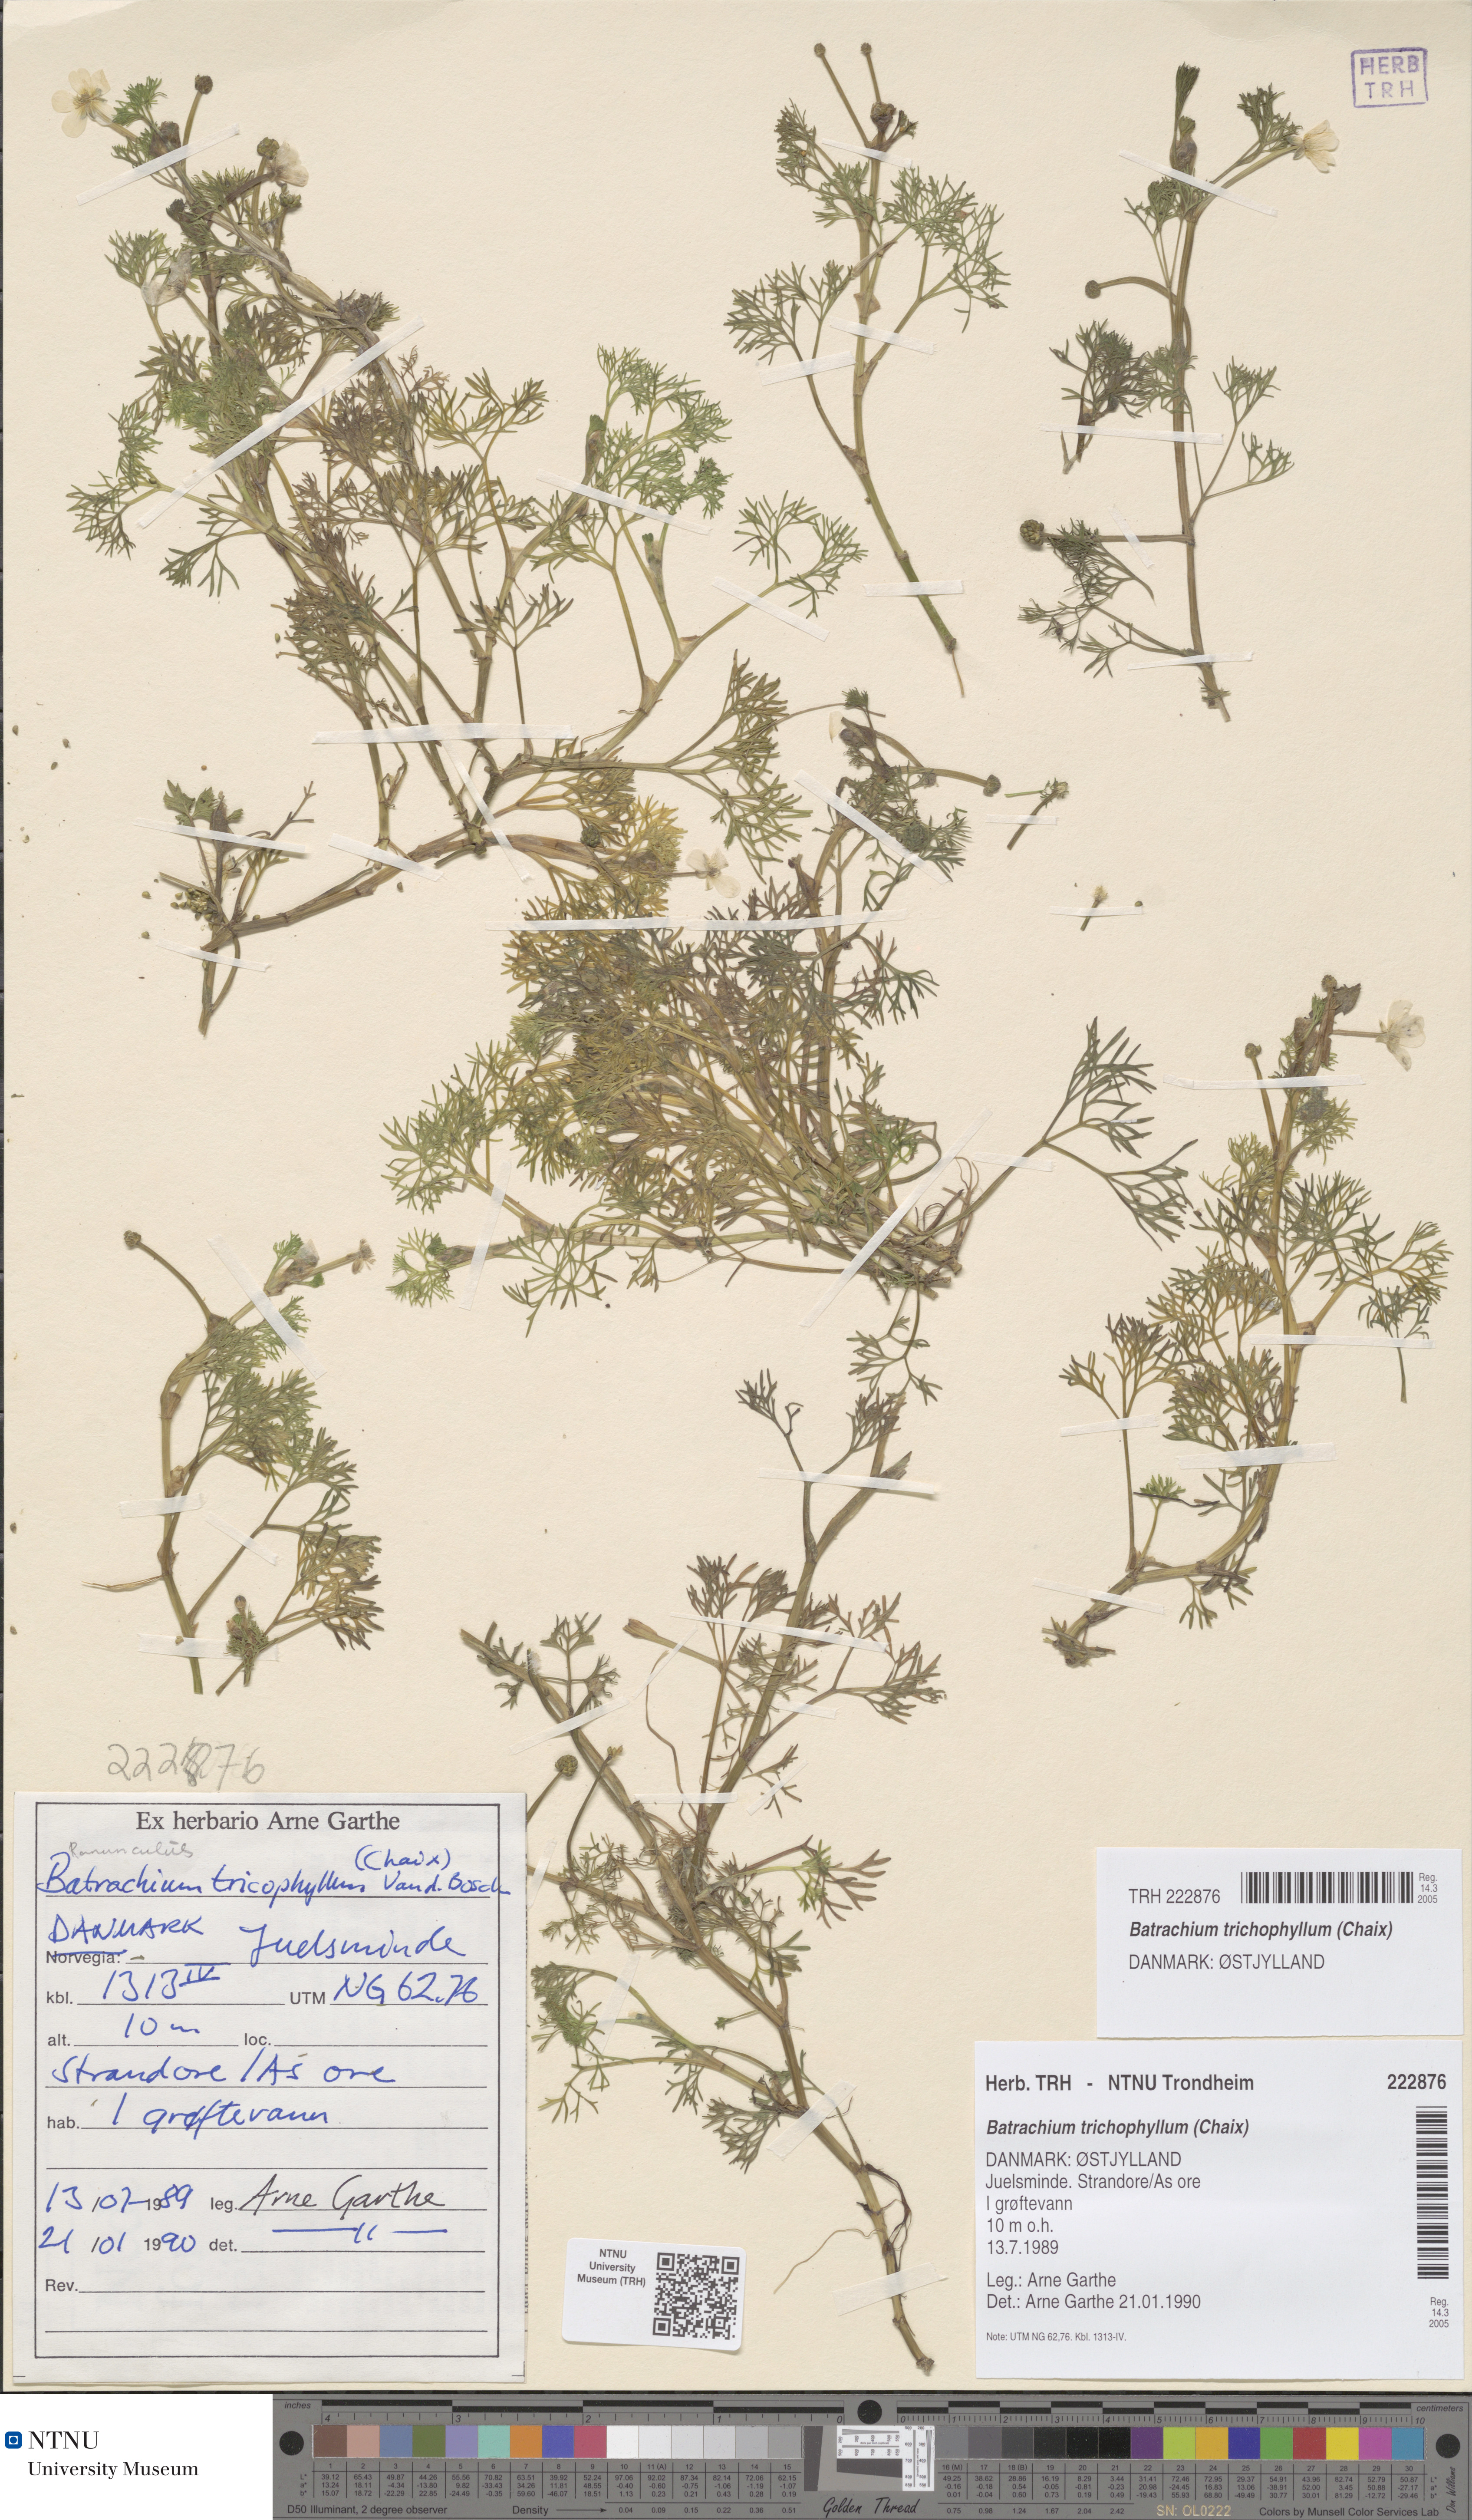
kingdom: Plantae
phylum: Tracheophyta
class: Magnoliopsida
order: Ranunculales
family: Ranunculaceae
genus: Ranunculus
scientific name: Ranunculus trichophyllus
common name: Thread-leaved water-crowfoot
